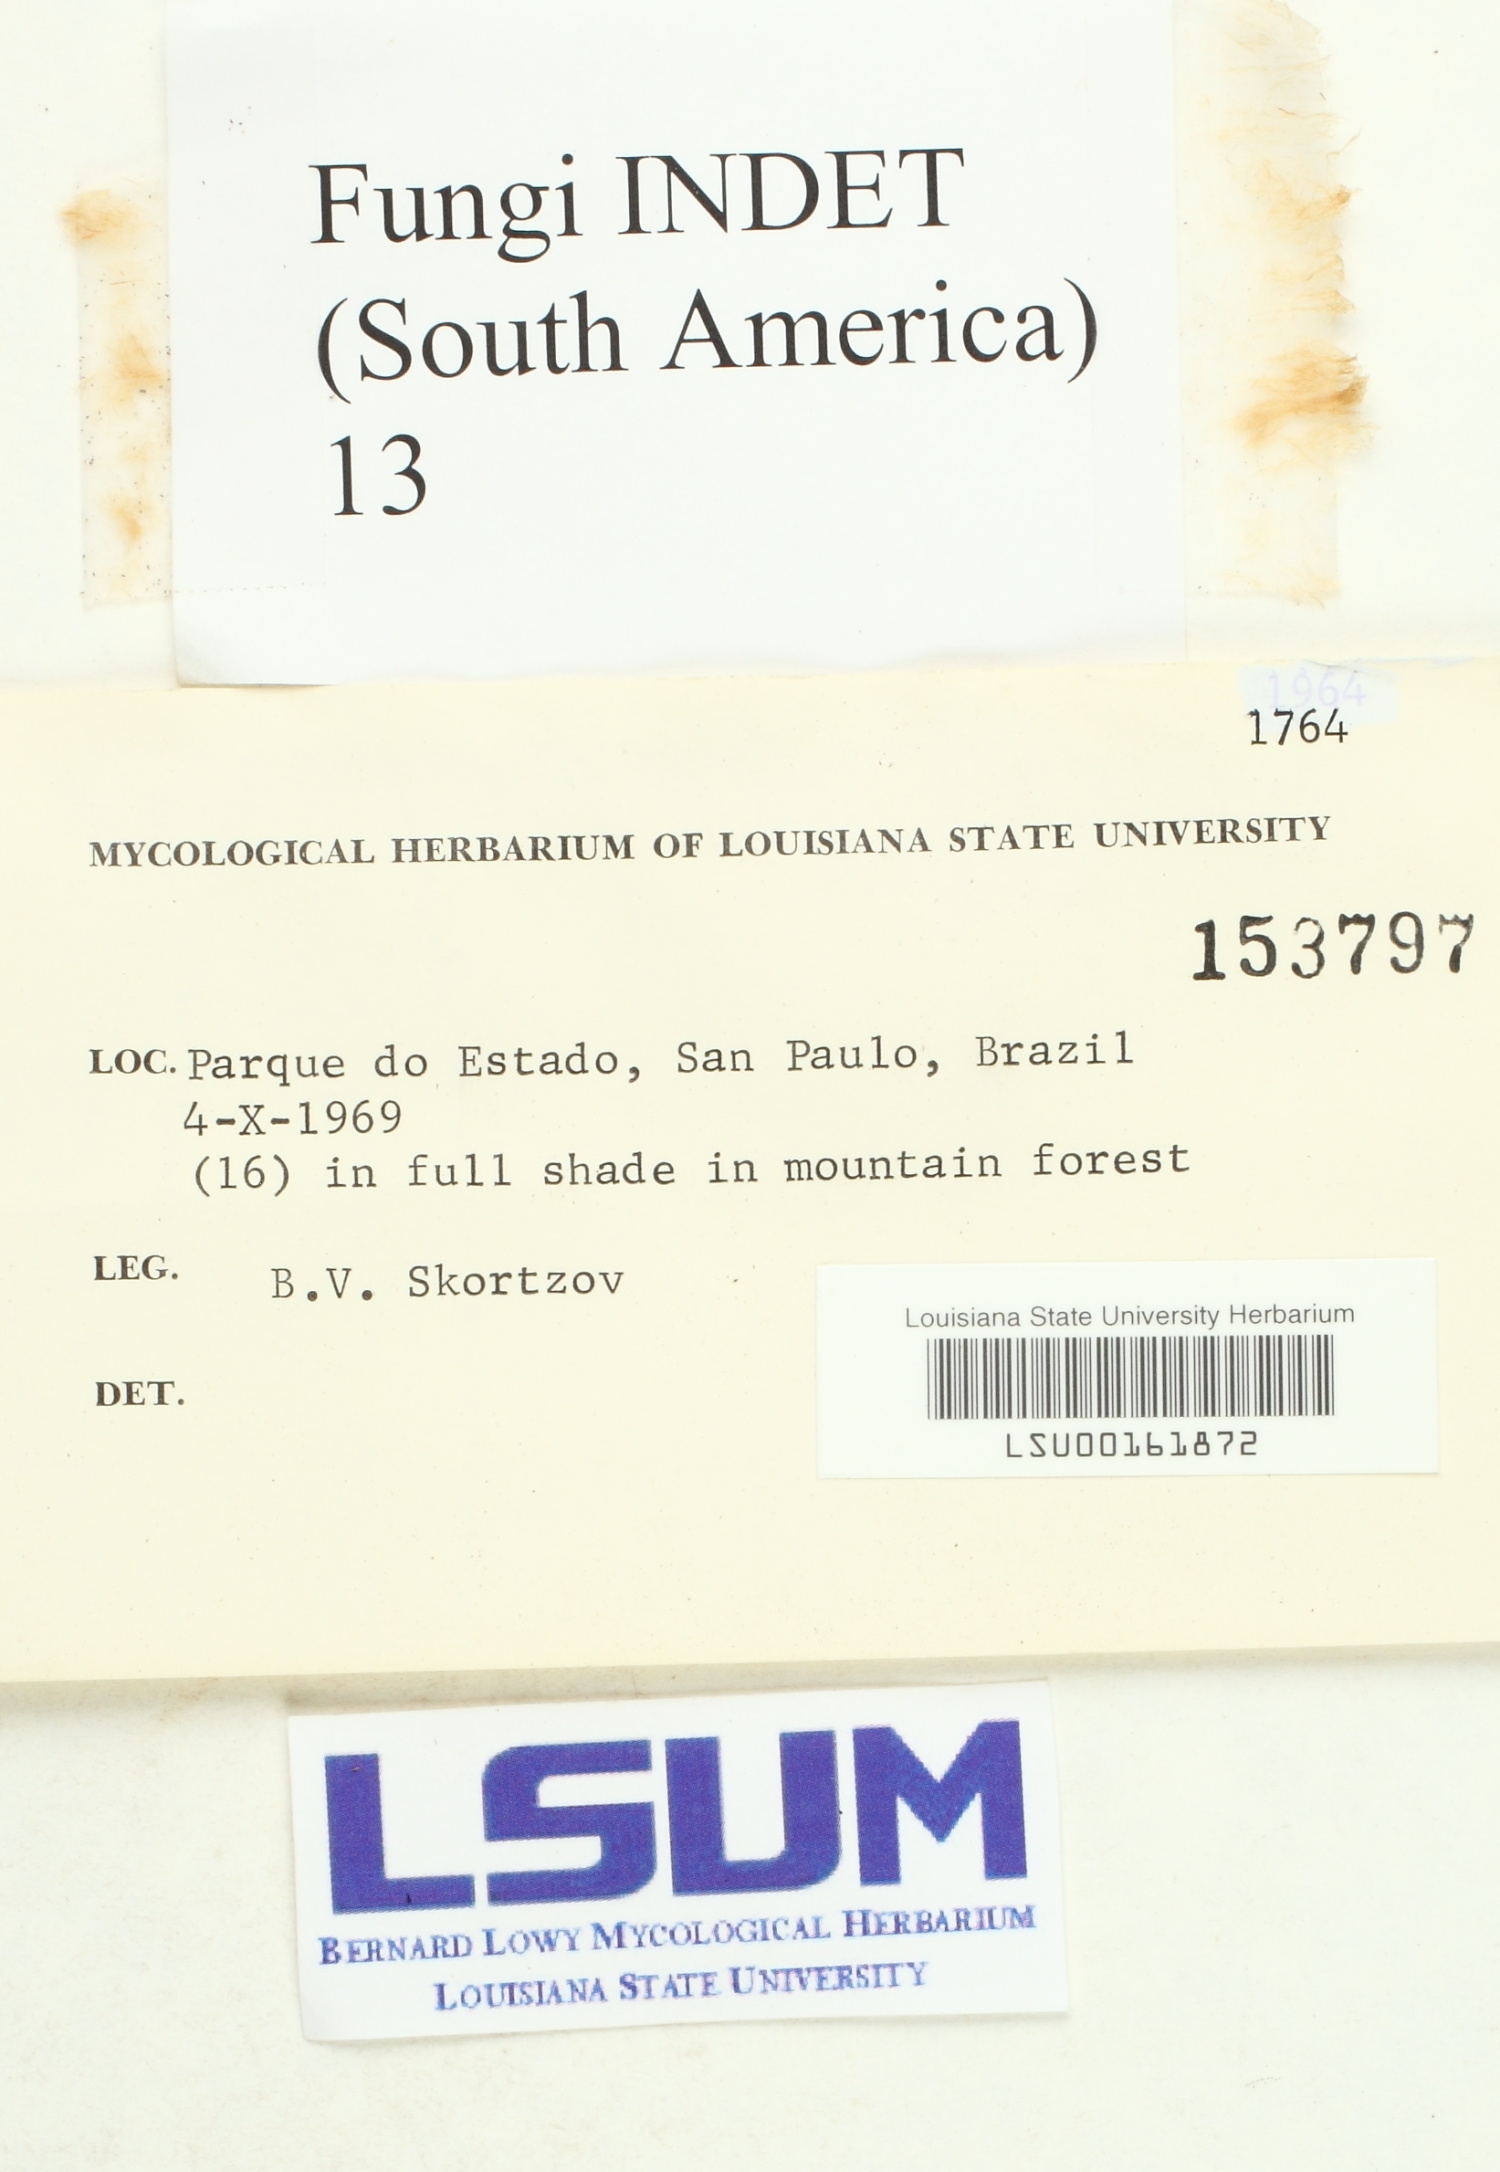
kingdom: Fungi
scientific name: Fungi
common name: Fungi
